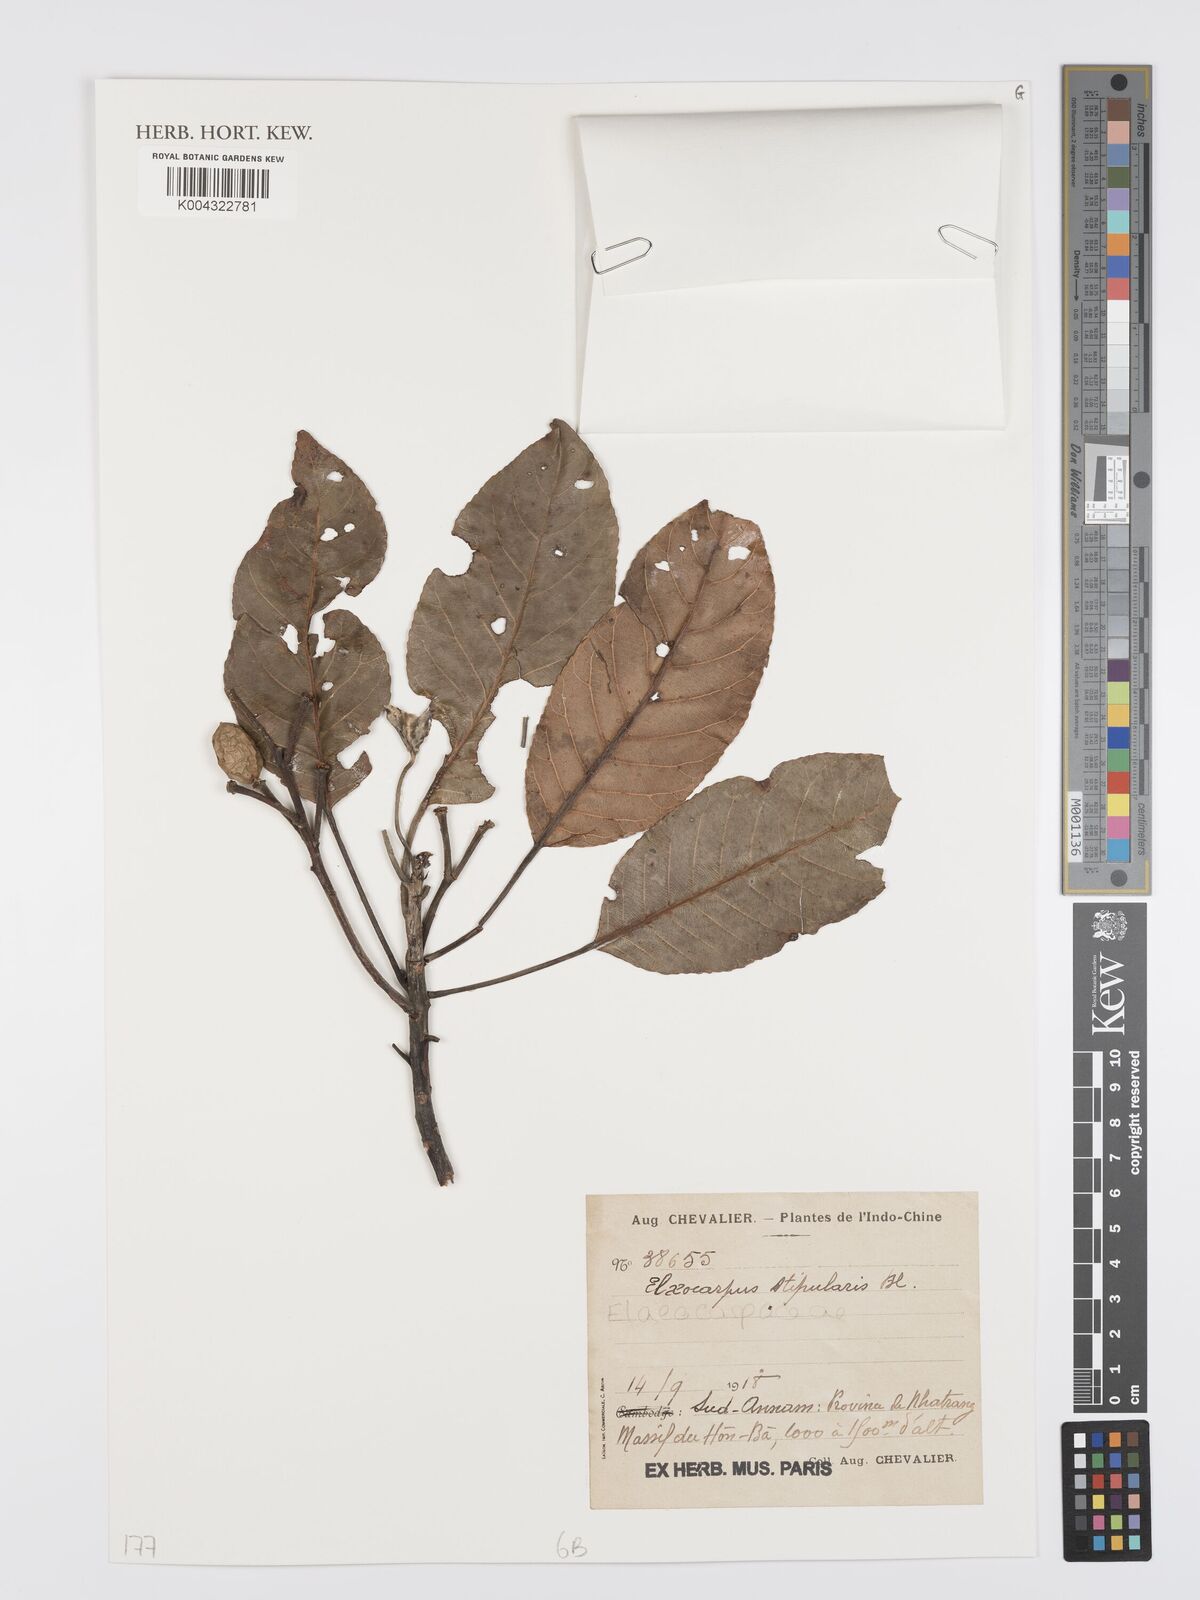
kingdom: Plantae
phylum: Tracheophyta
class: Magnoliopsida
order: Oxalidales
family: Elaeocarpaceae
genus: Elaeocarpus
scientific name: Elaeocarpus stipularis
